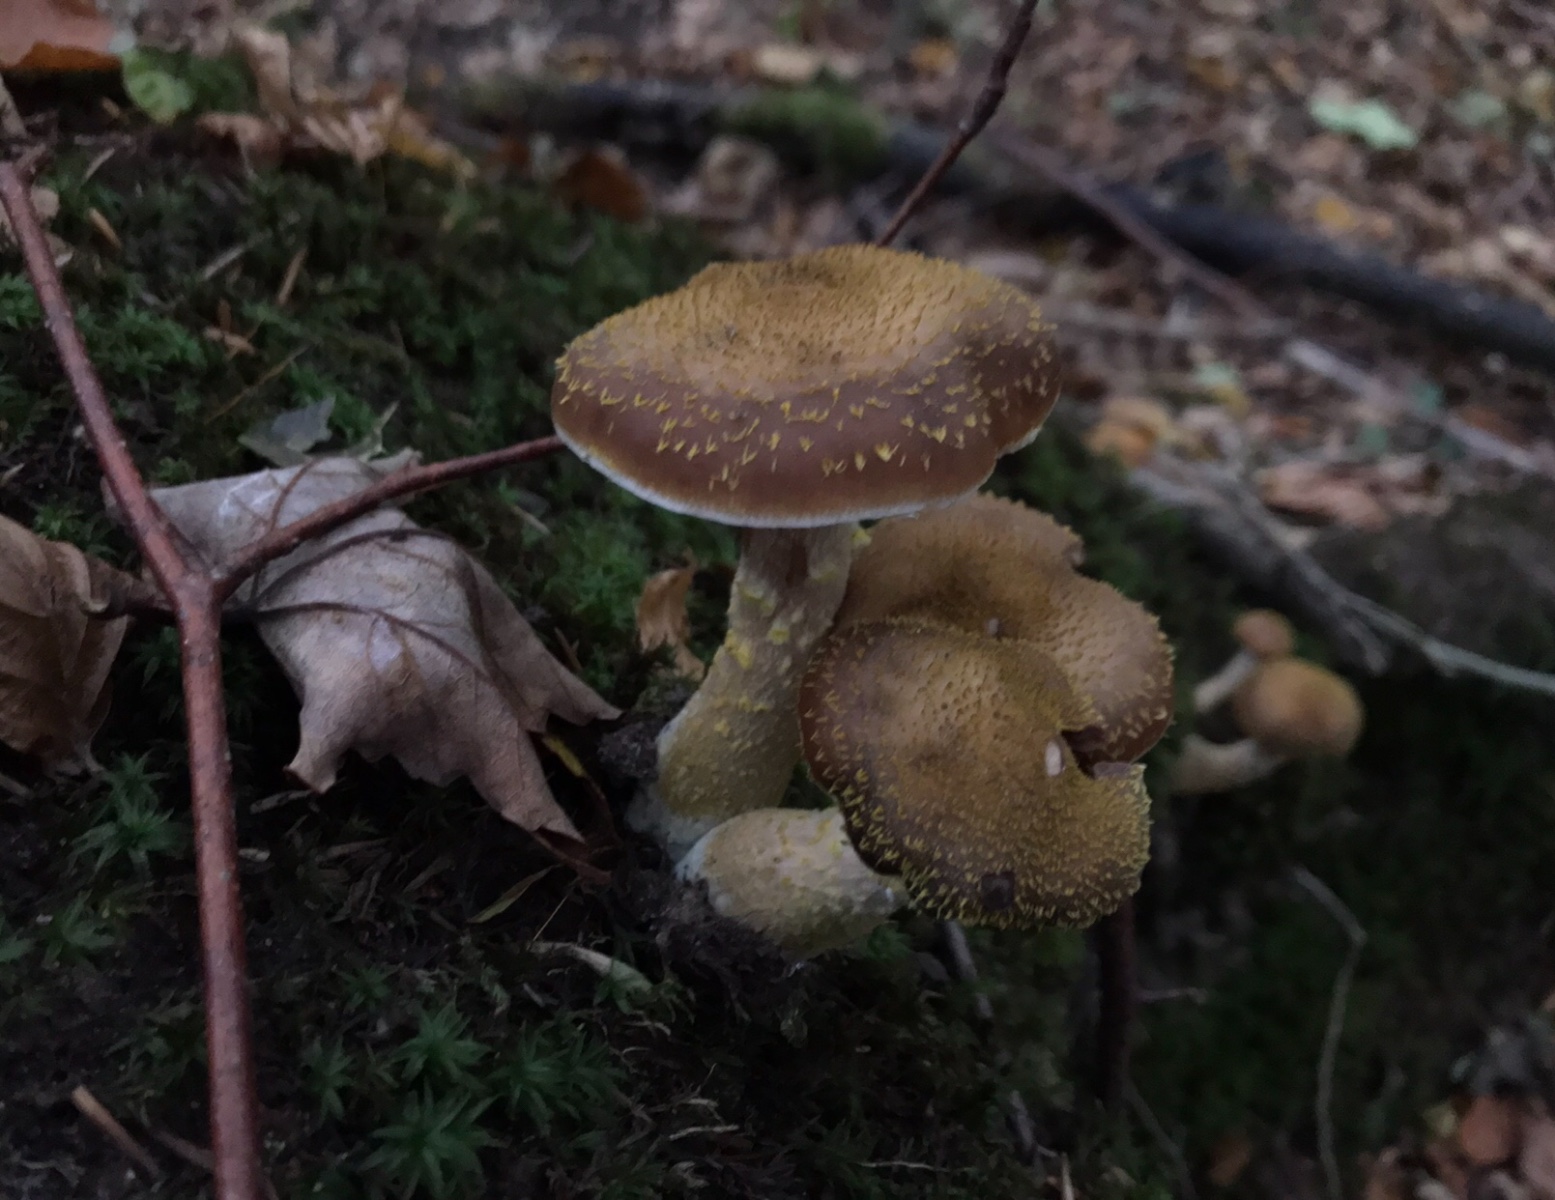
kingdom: Fungi
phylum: Basidiomycota
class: Agaricomycetes
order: Agaricales
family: Physalacriaceae
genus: Armillaria
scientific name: Armillaria lutea
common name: køllestokket honningsvamp
